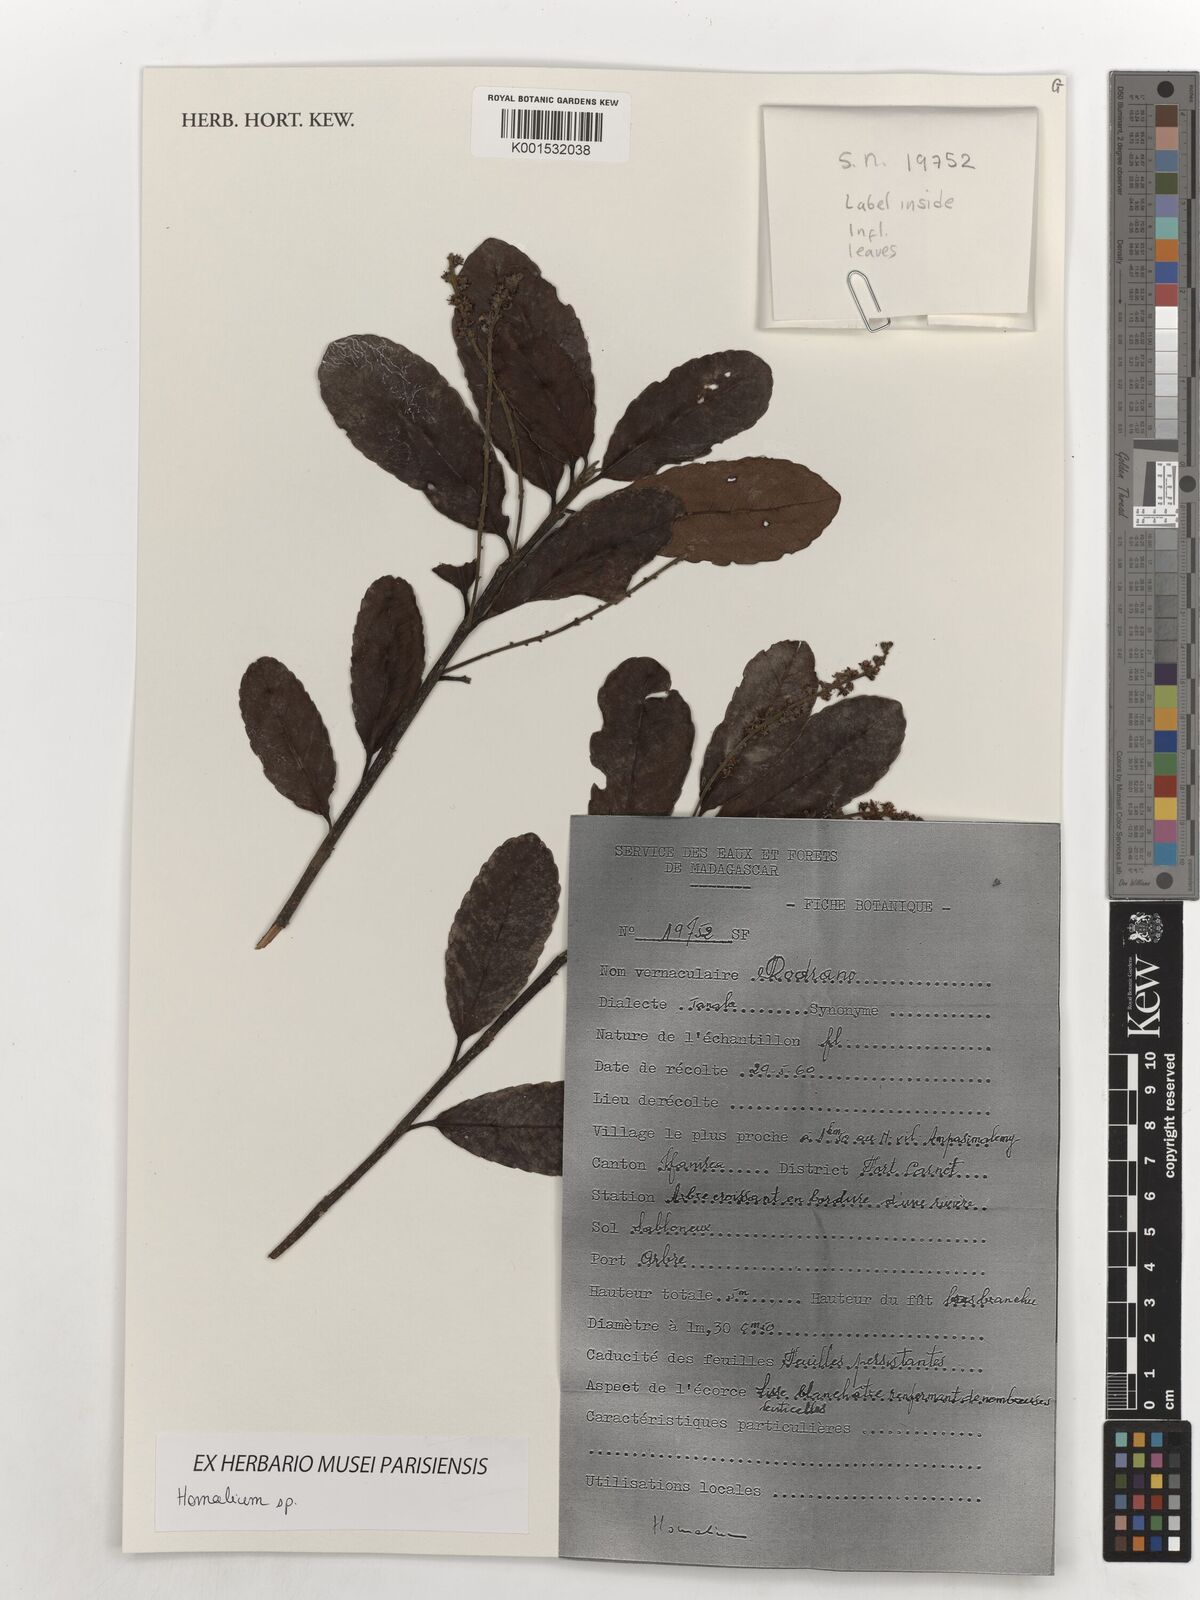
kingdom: Plantae
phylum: Tracheophyta
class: Magnoliopsida
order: Malpighiales
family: Salicaceae
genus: Homalium
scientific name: Homalium
